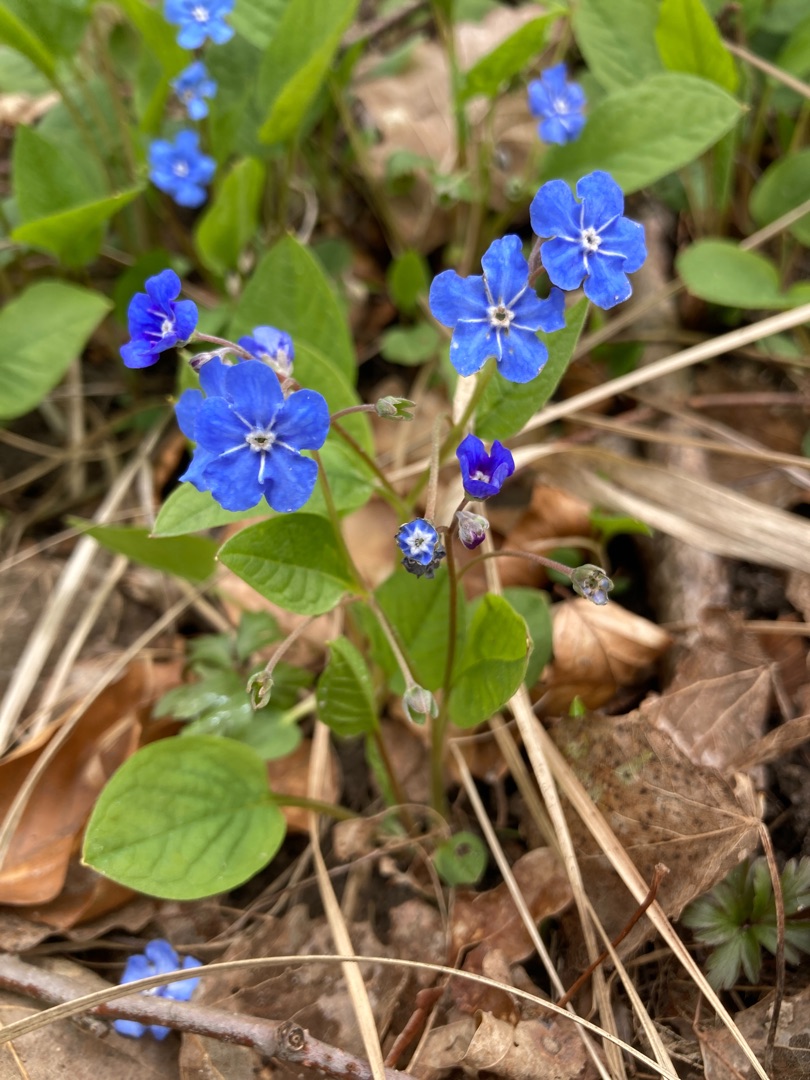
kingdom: Plantae
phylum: Tracheophyta
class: Magnoliopsida
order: Boraginales
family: Boraginaceae
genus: Omphalodes
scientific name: Omphalodes verna
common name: Vår-kærminde
